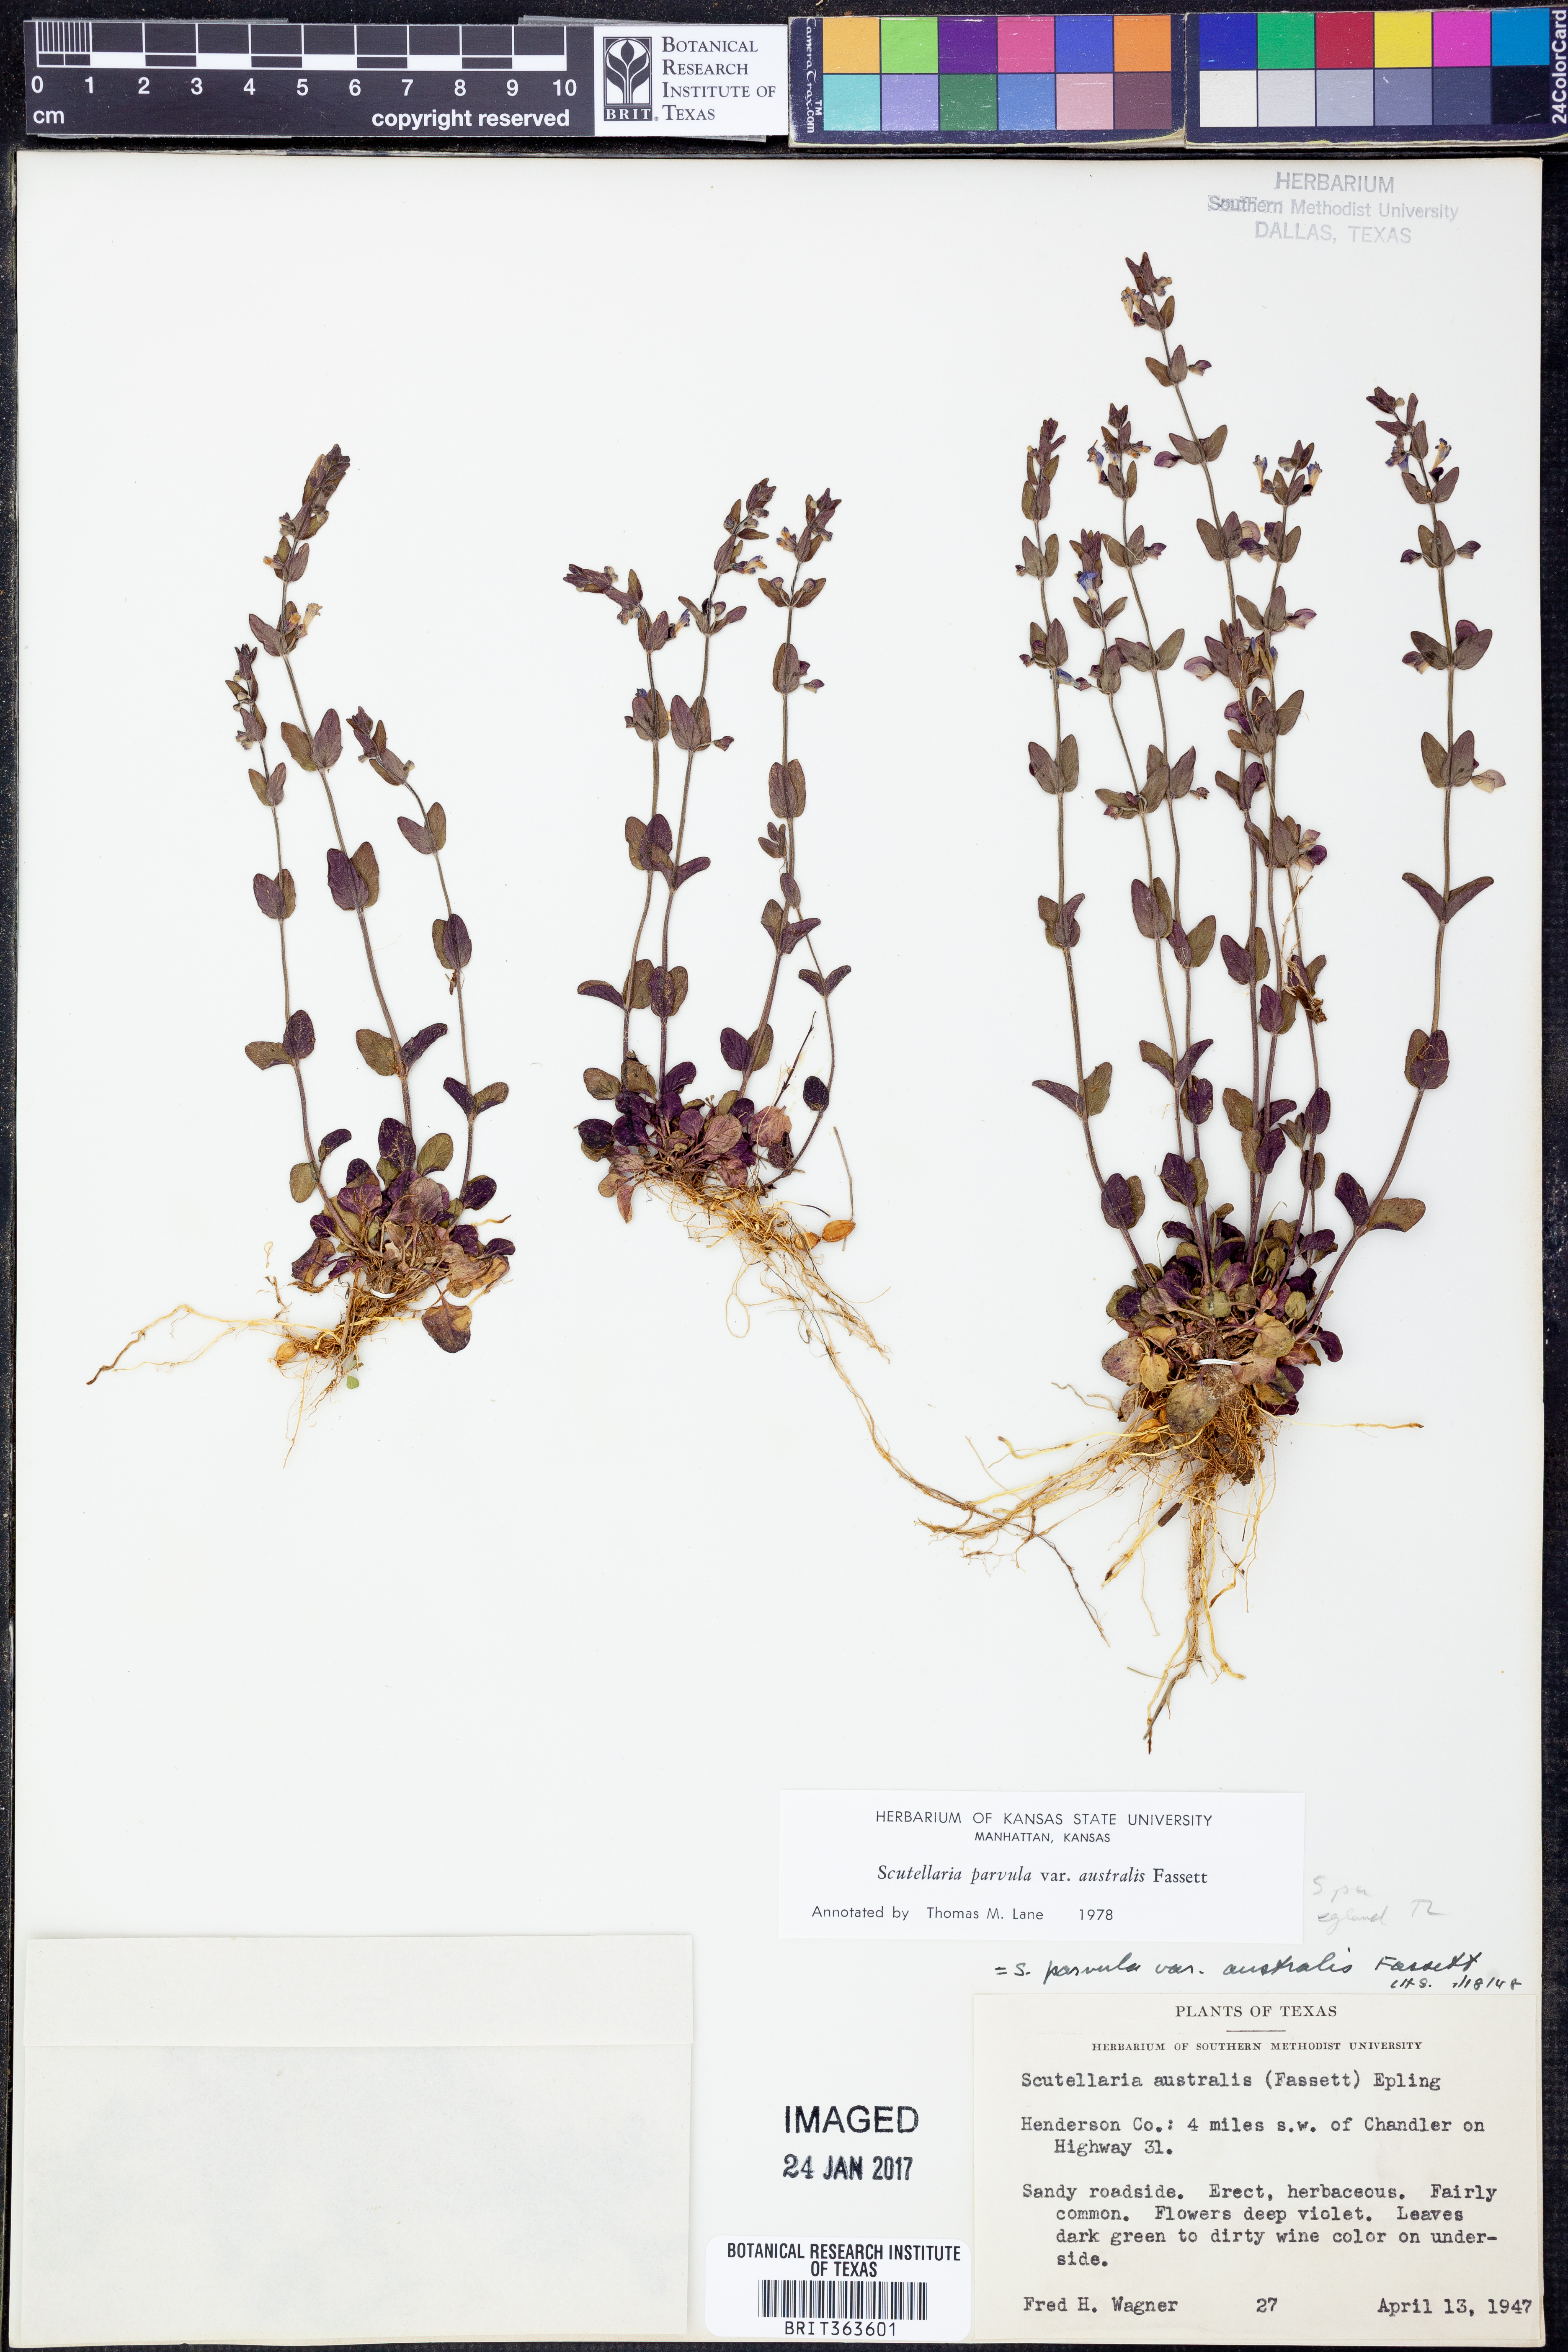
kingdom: Plantae
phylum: Tracheophyta
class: Magnoliopsida
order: Lamiales
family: Lamiaceae
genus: Scutellaria
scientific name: Scutellaria parvula
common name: Little scullcap
